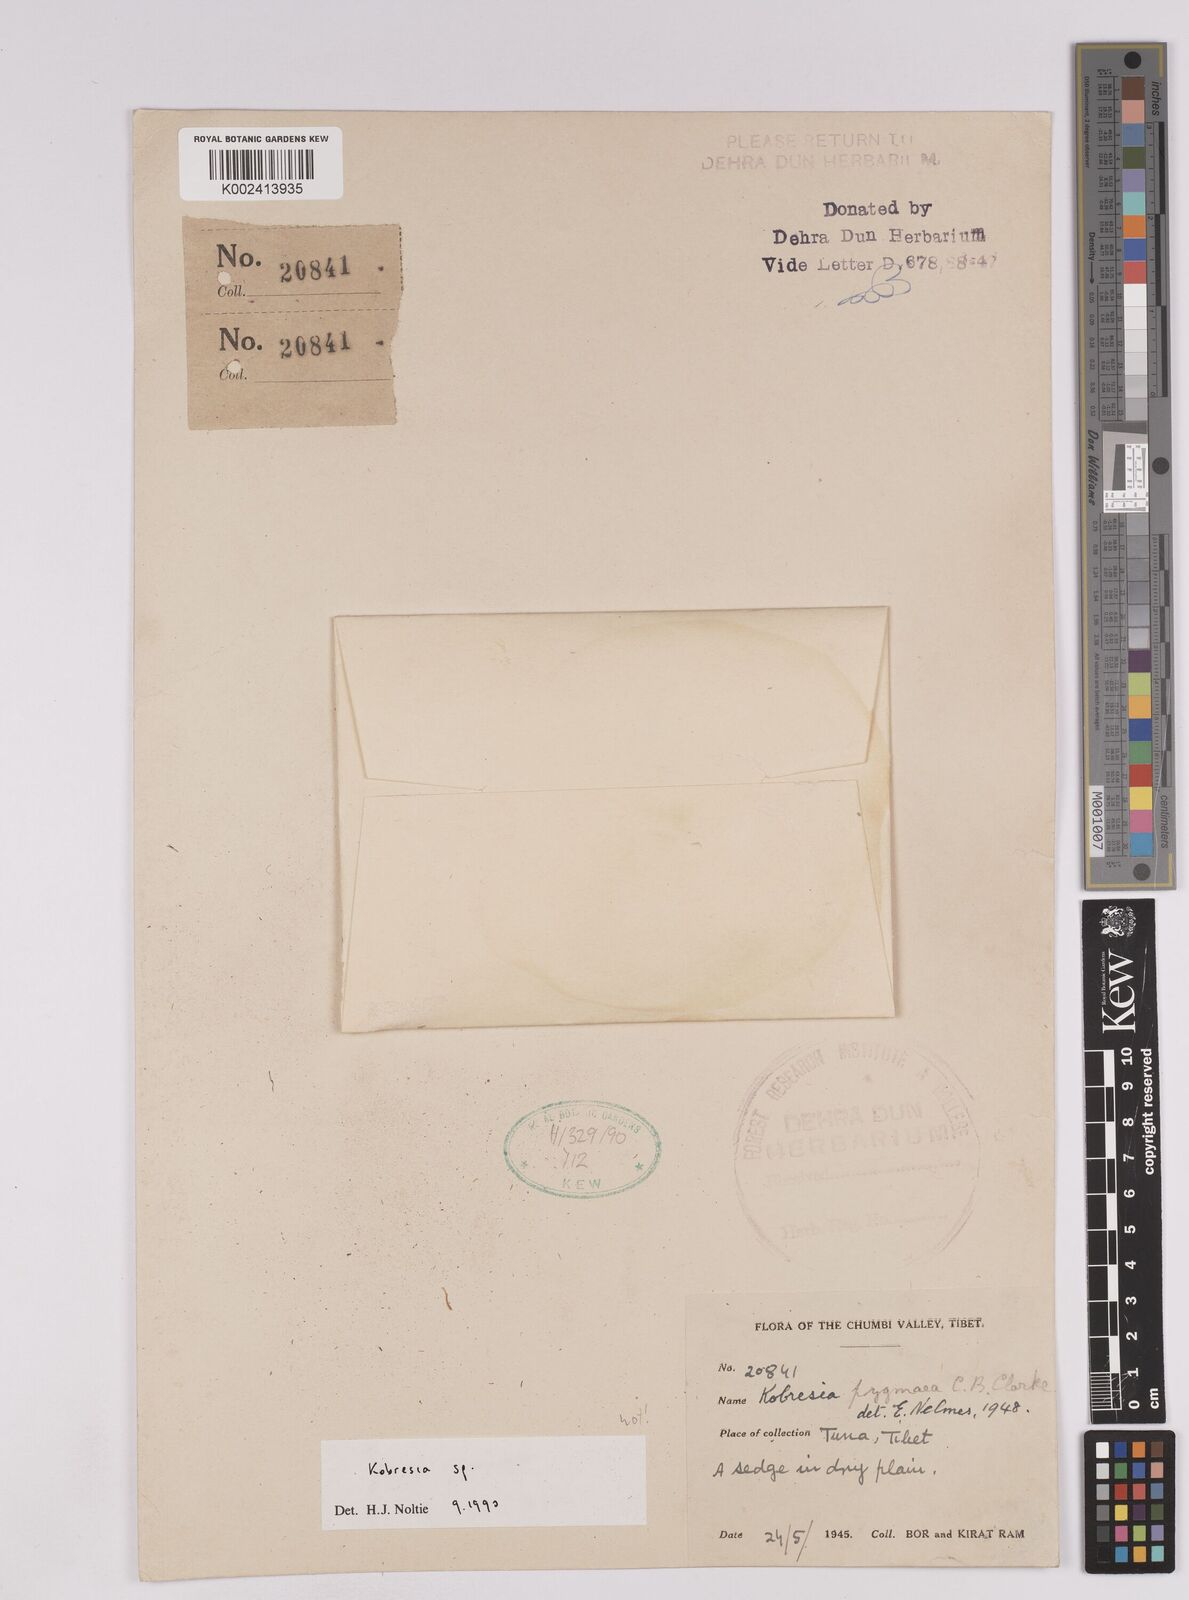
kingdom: Plantae
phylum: Tracheophyta
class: Liliopsida
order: Poales
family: Cyperaceae
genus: Carex
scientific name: Carex
